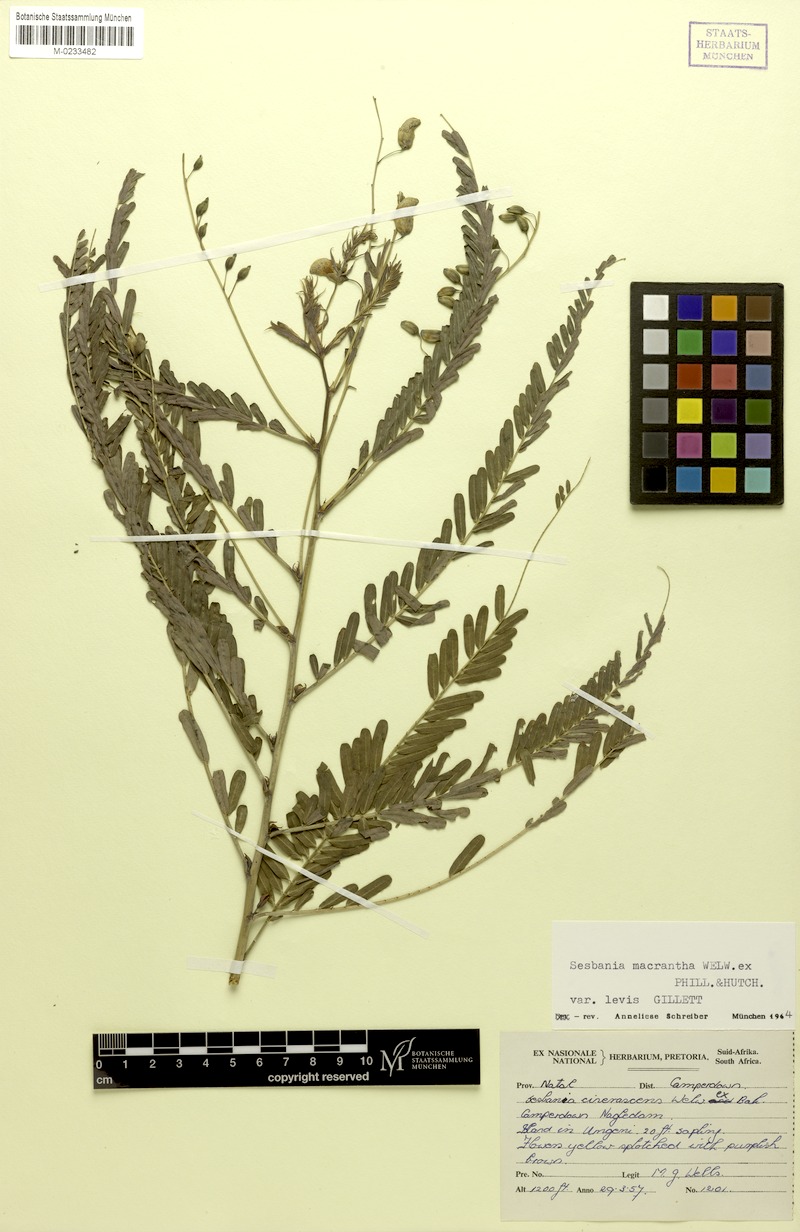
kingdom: Plantae
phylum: Tracheophyta
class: Magnoliopsida
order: Fabales
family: Fabaceae
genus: Sesbania
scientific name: Sesbania macrantha
